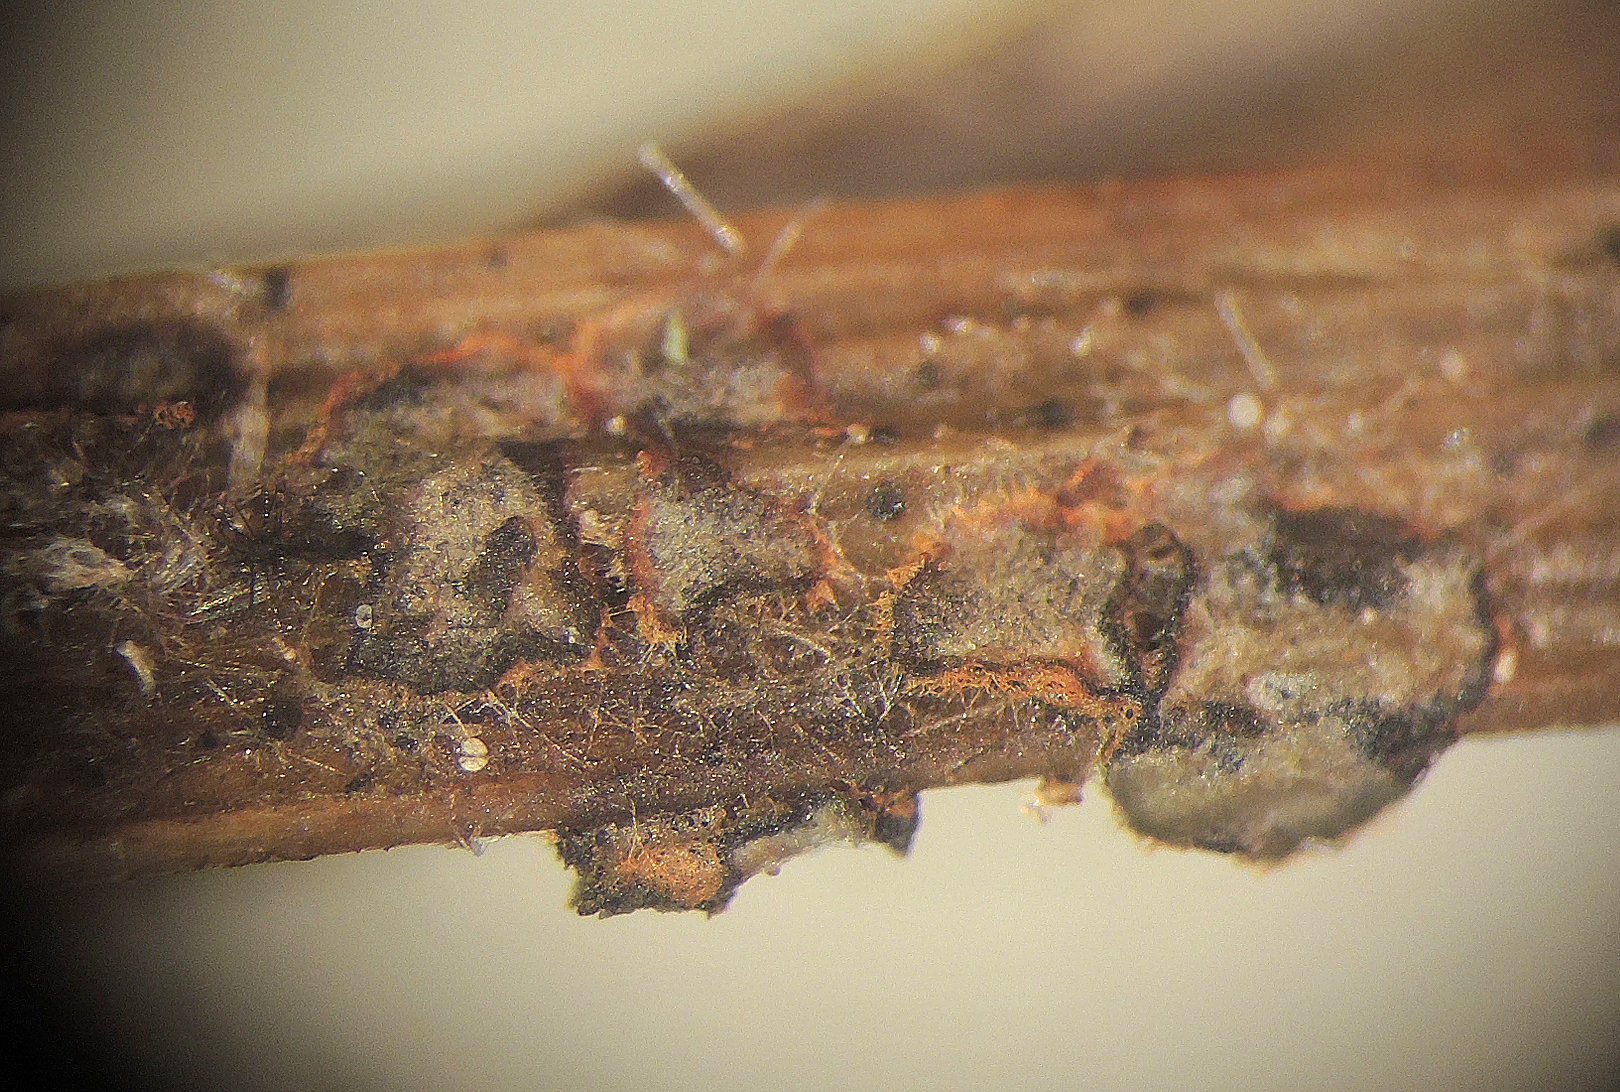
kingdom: Fungi
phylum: Ascomycota
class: Leotiomycetes
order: Helotiales
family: Ploettnerulaceae
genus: Dennisiodiscus
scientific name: Dennisiodiscus prasinus
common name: sol-gråskive
